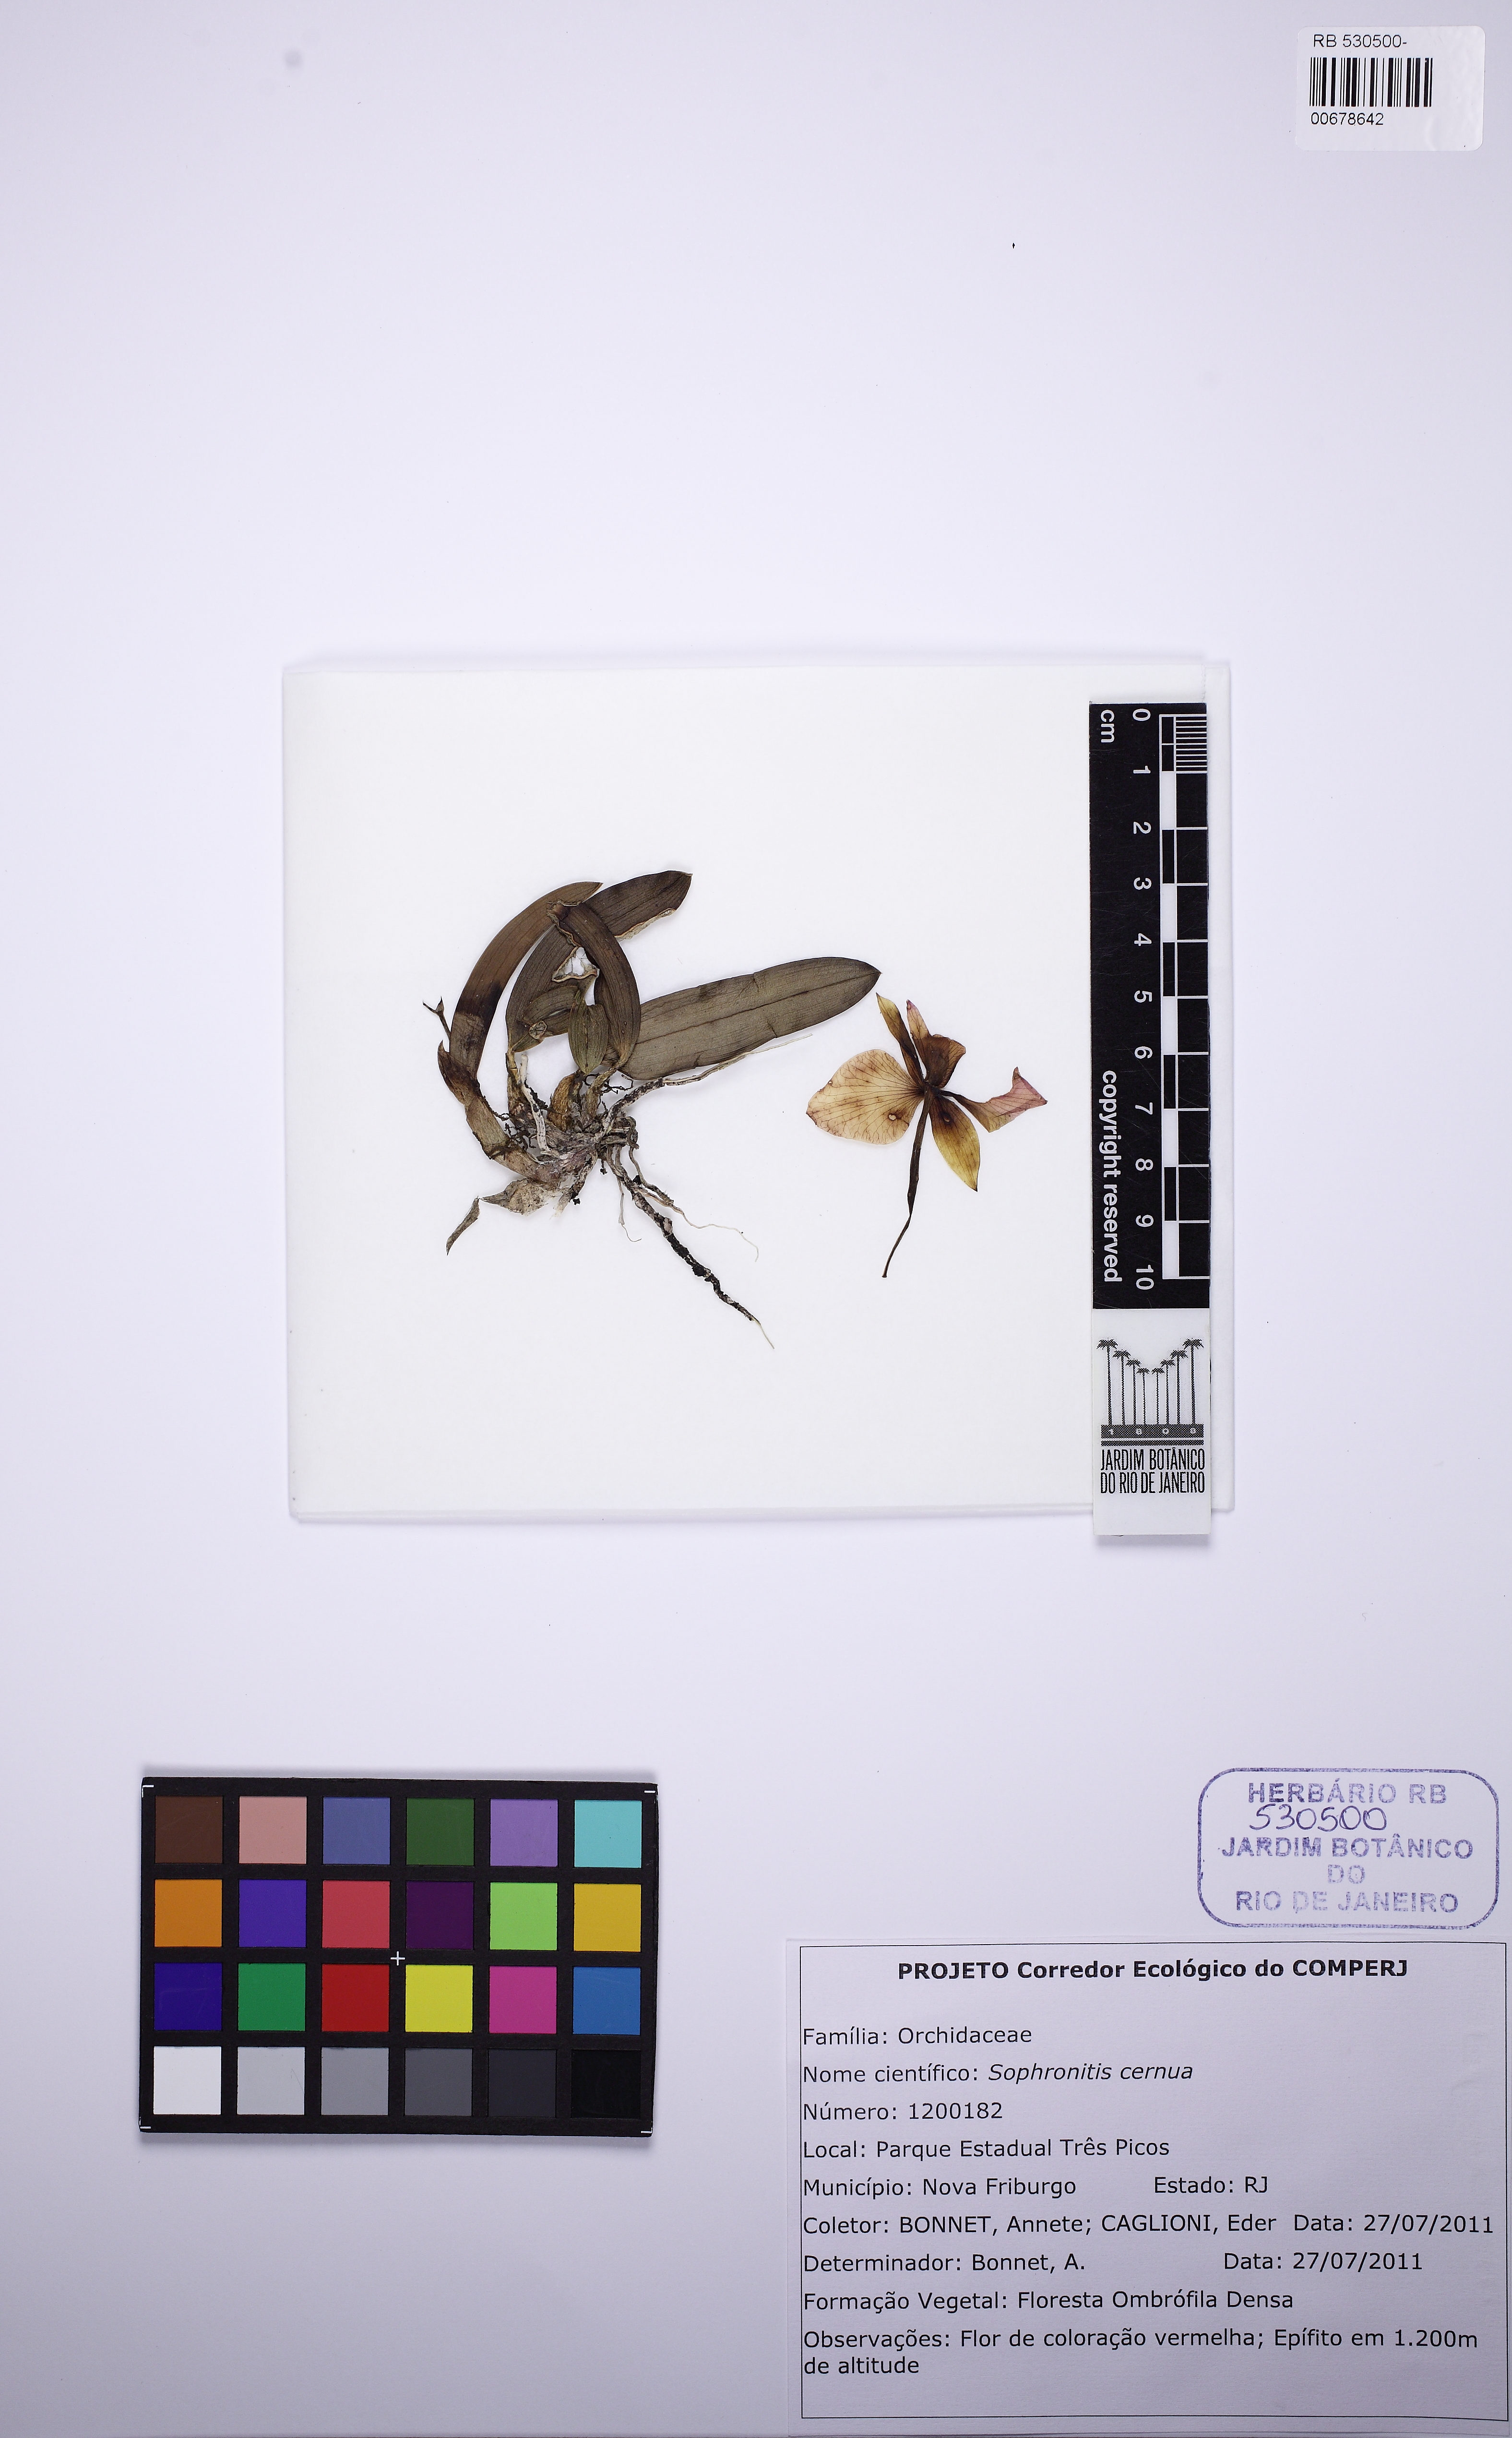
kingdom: Plantae
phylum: Tracheophyta
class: Liliopsida
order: Asparagales
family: Orchidaceae
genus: Cattleya
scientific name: Cattleya coccinea
